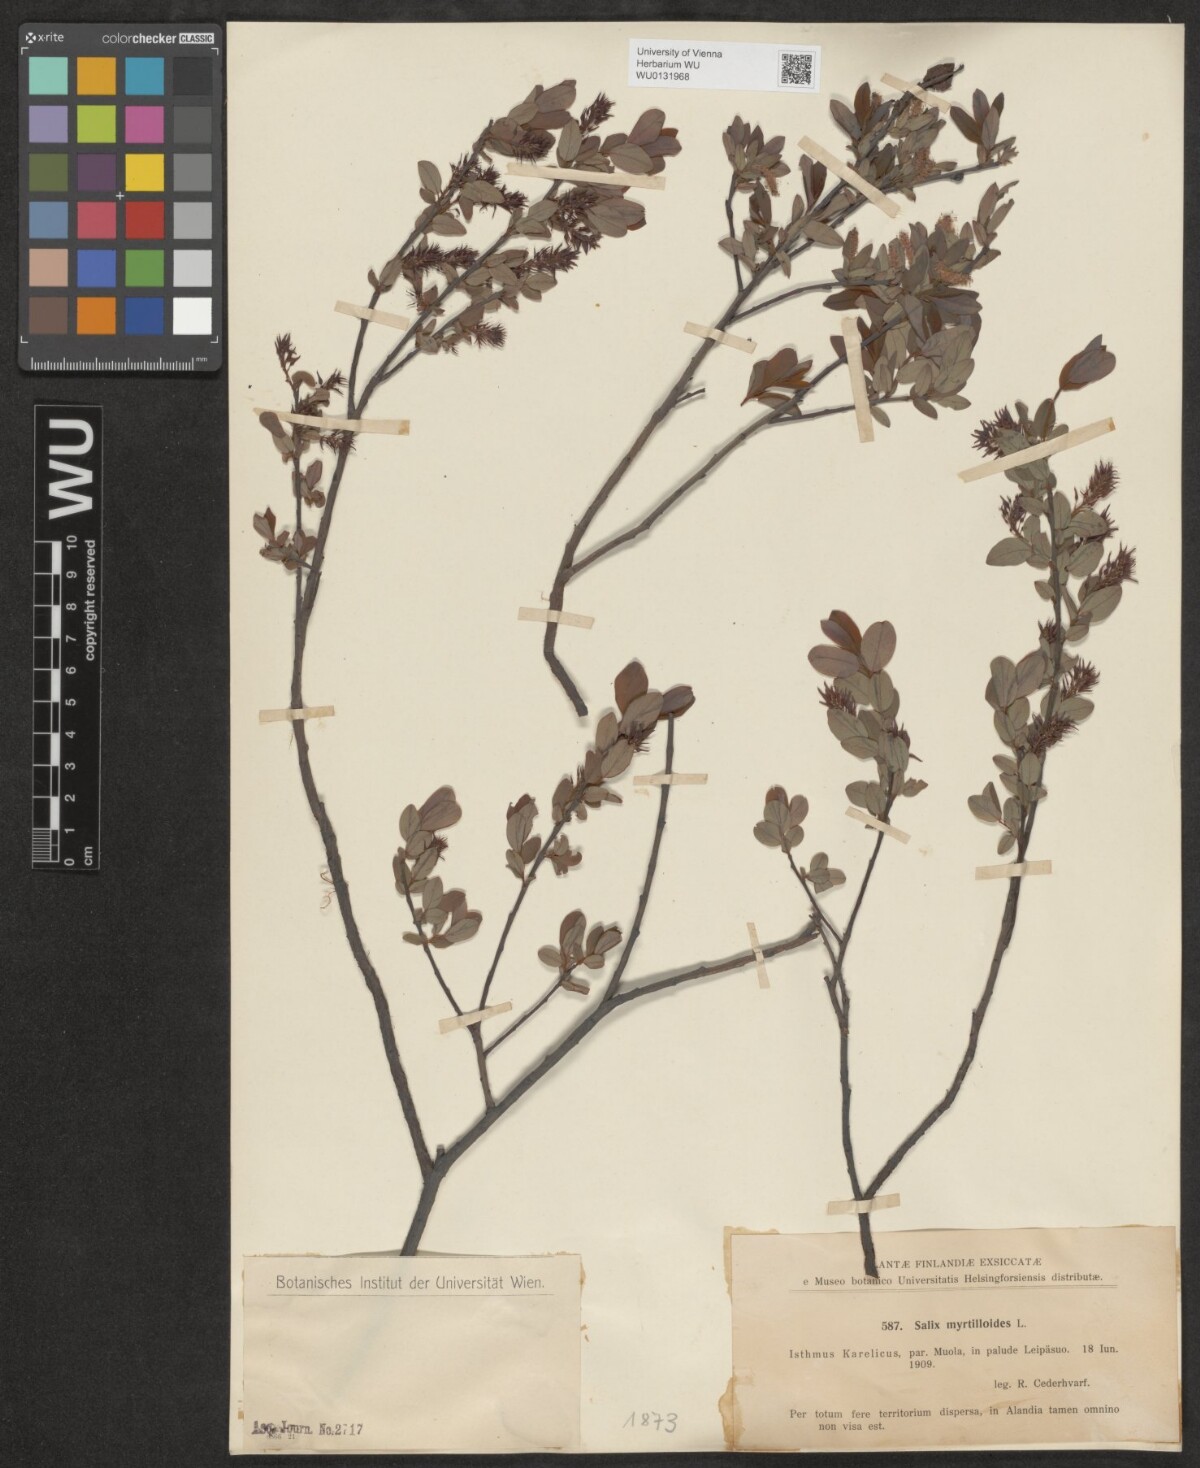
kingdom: Plantae
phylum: Tracheophyta
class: Magnoliopsida
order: Malpighiales
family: Salicaceae
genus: Salix
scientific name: Salix myrtilloides
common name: Myrtle-leaved willow
